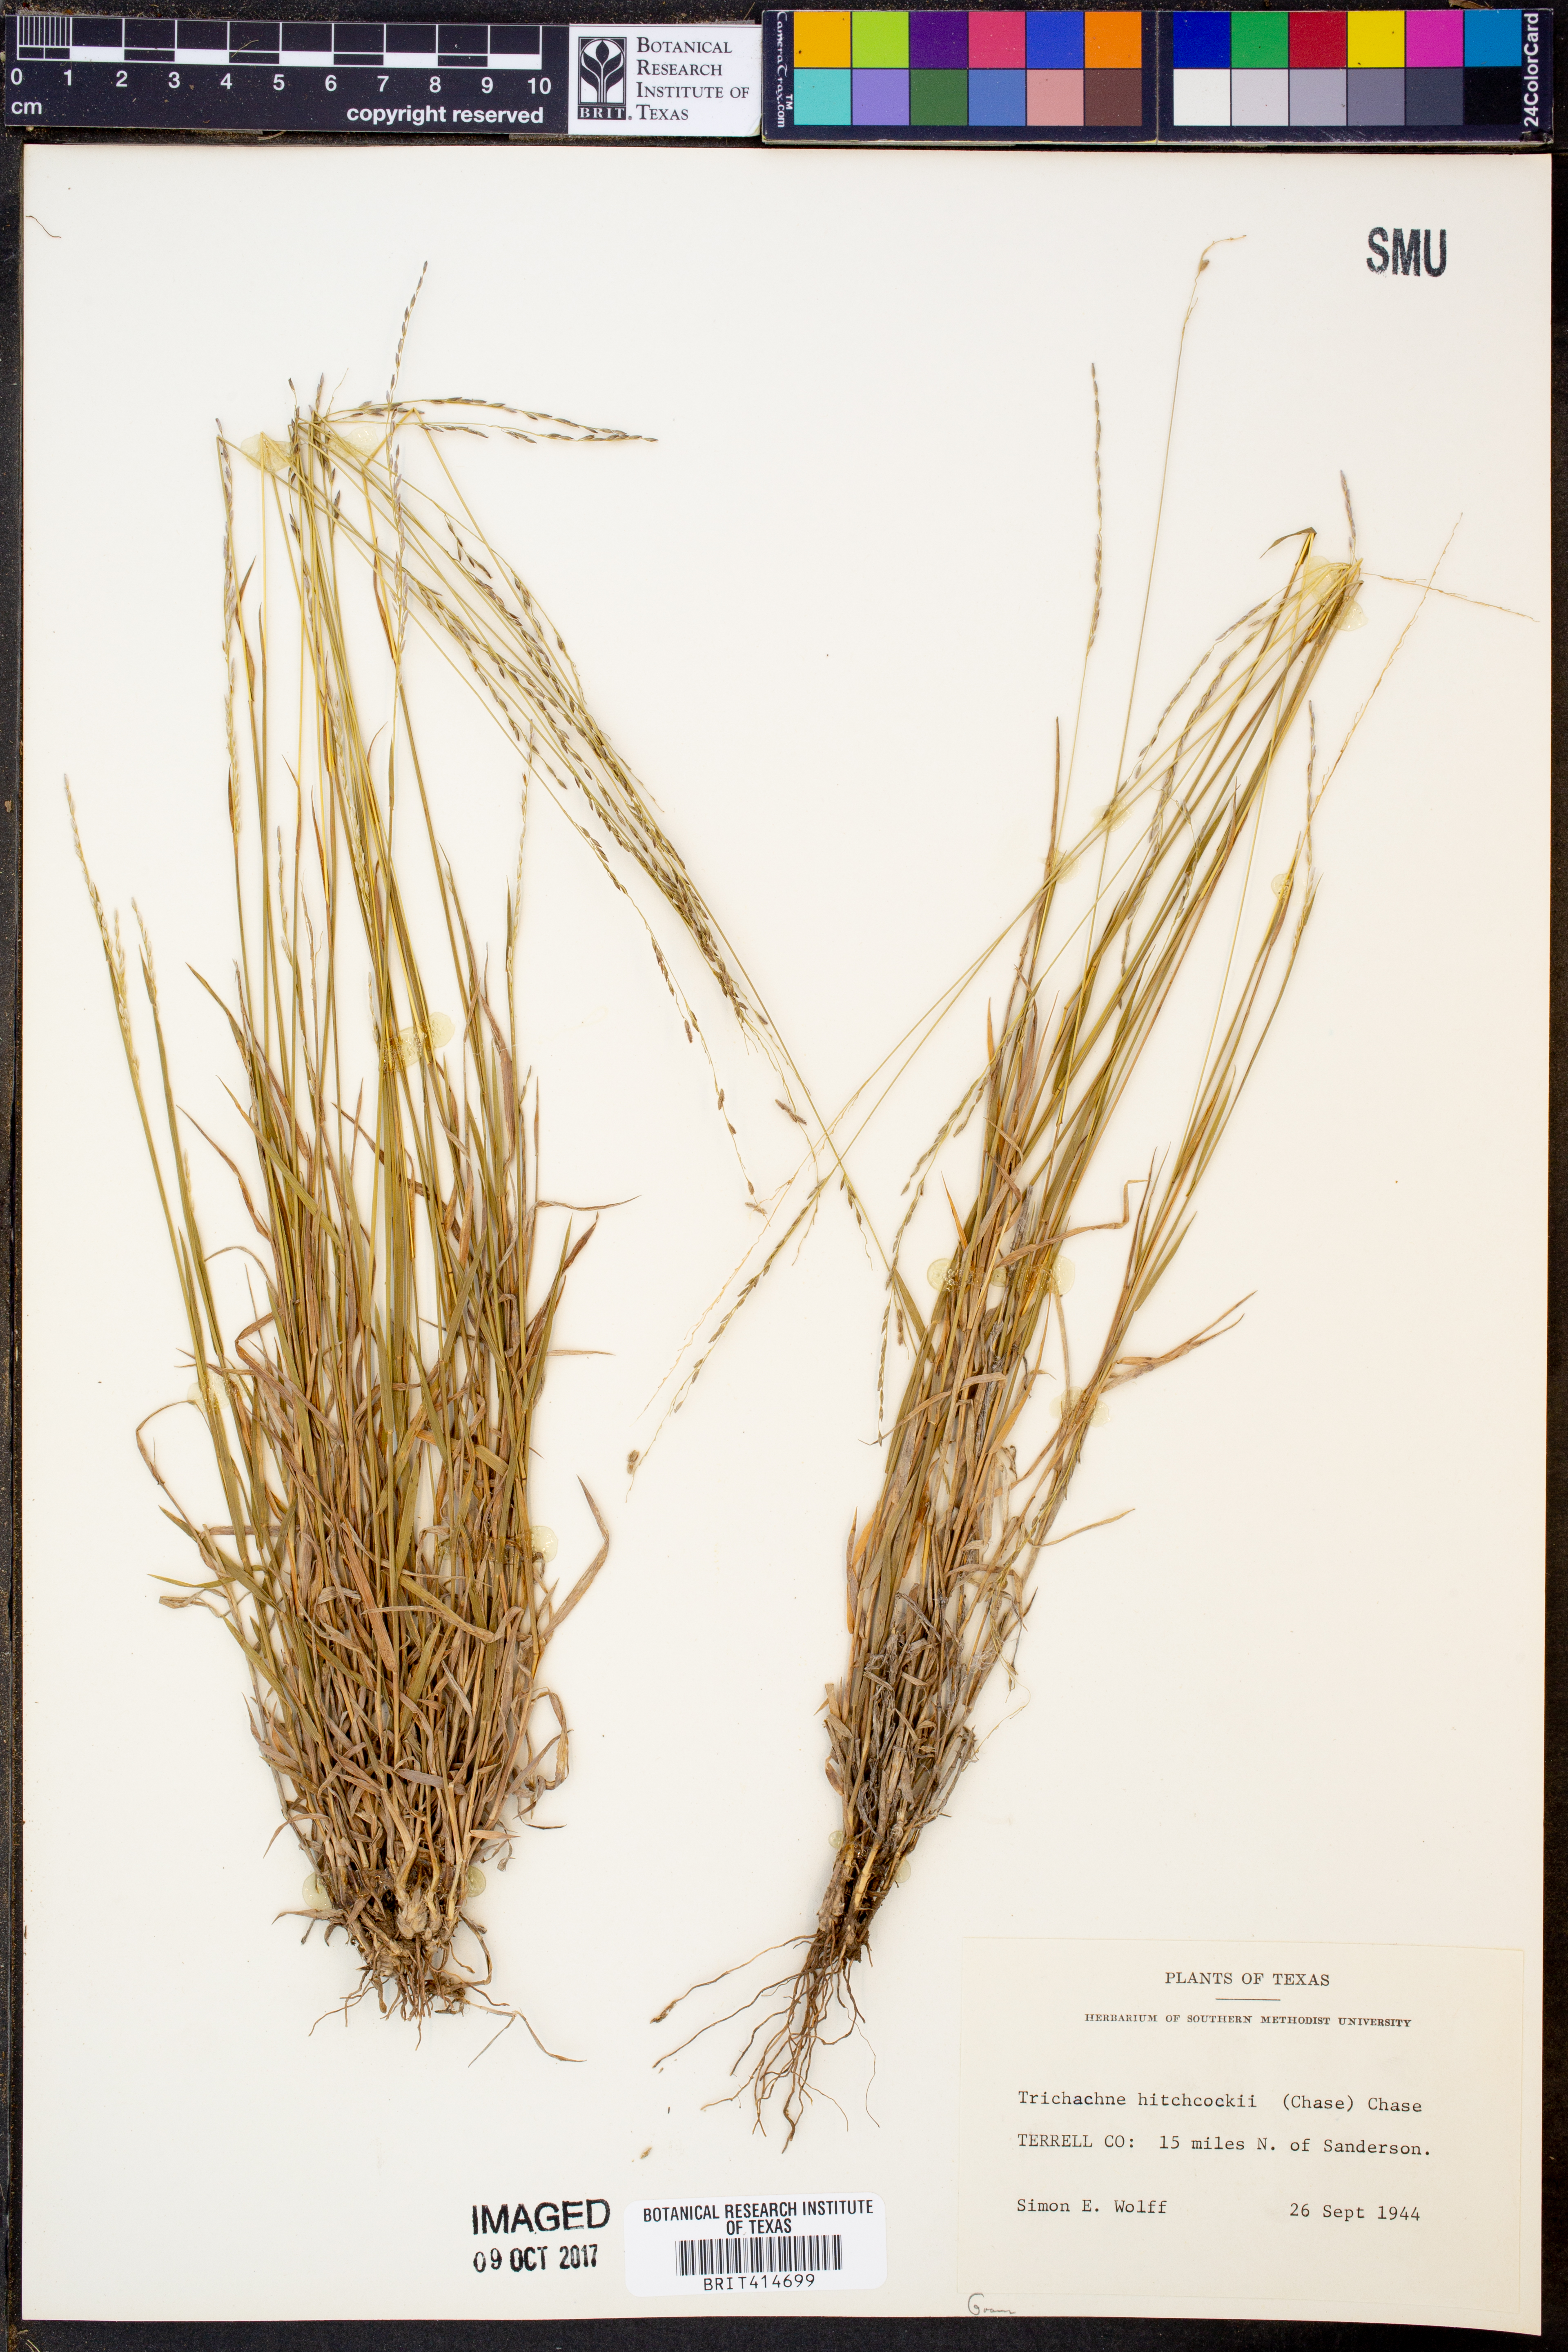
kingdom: Plantae
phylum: Tracheophyta
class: Liliopsida
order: Poales
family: Poaceae
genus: Digitaria
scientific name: Digitaria hitchcockii
